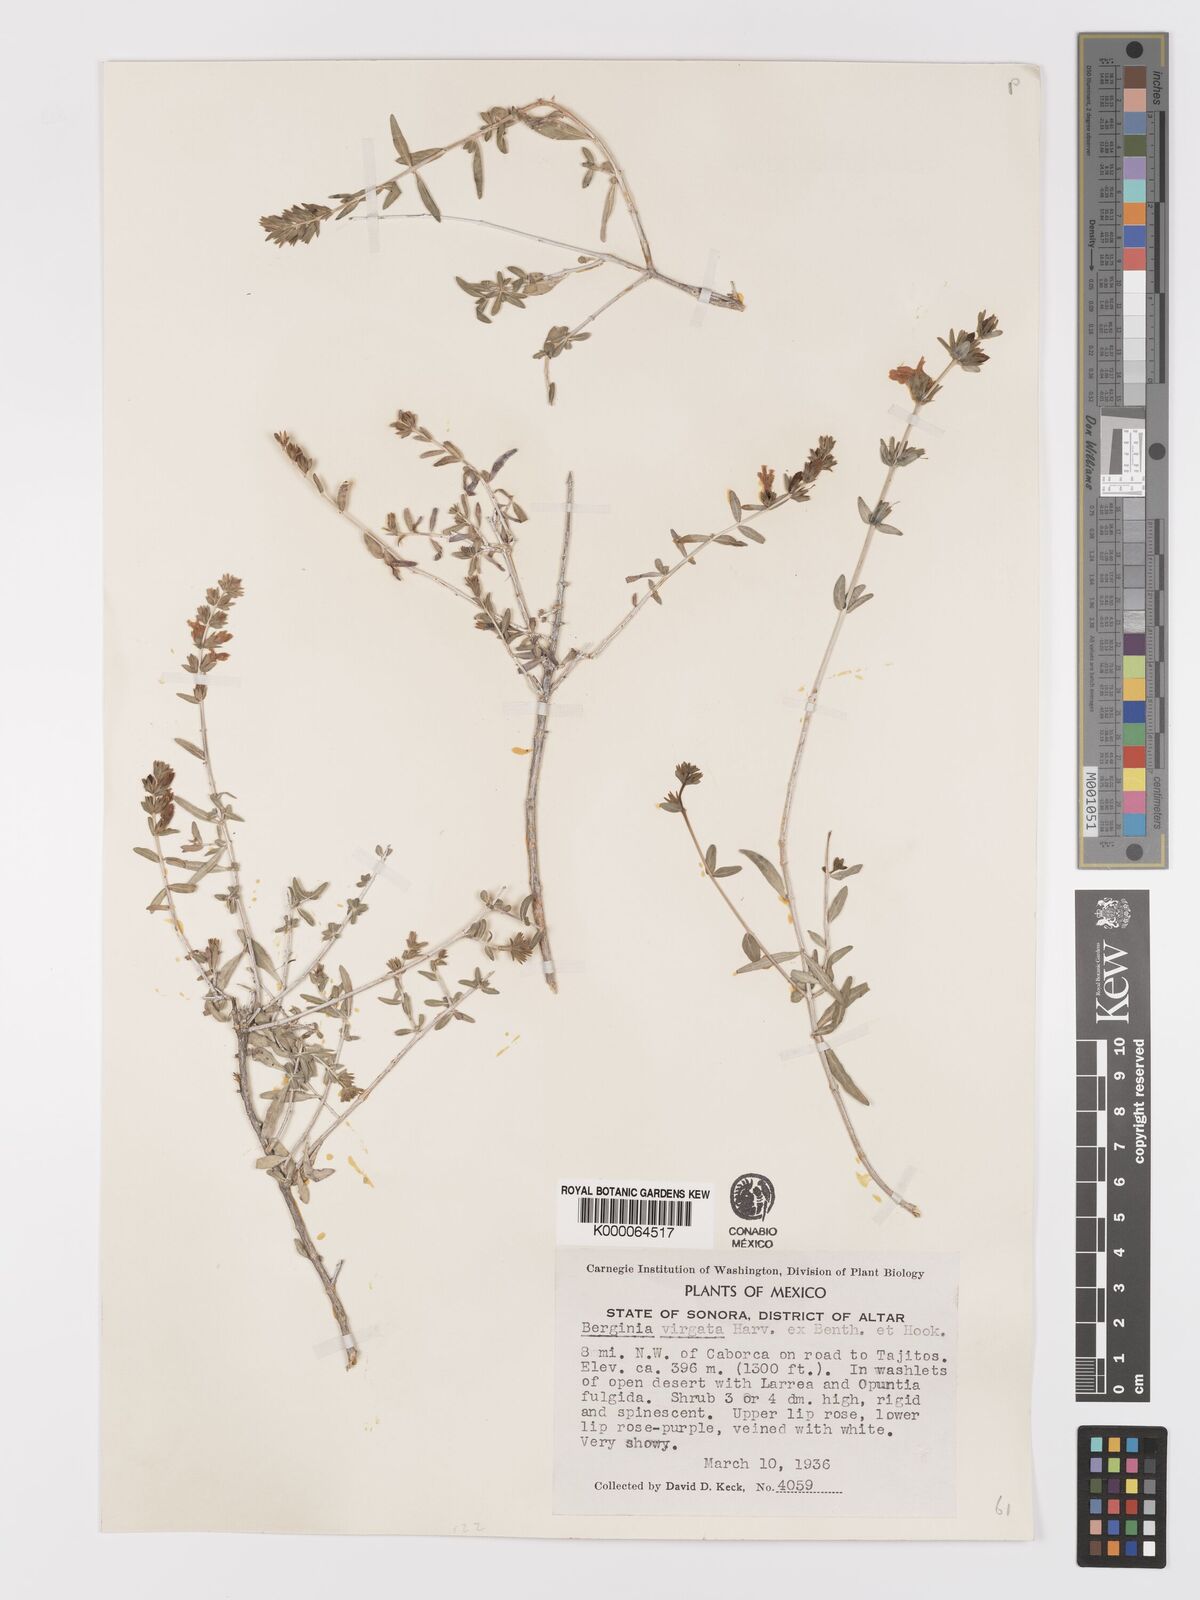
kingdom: Plantae
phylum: Tracheophyta
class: Magnoliopsida
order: Lamiales
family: Acanthaceae
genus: Holographis
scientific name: Holographis virgata
